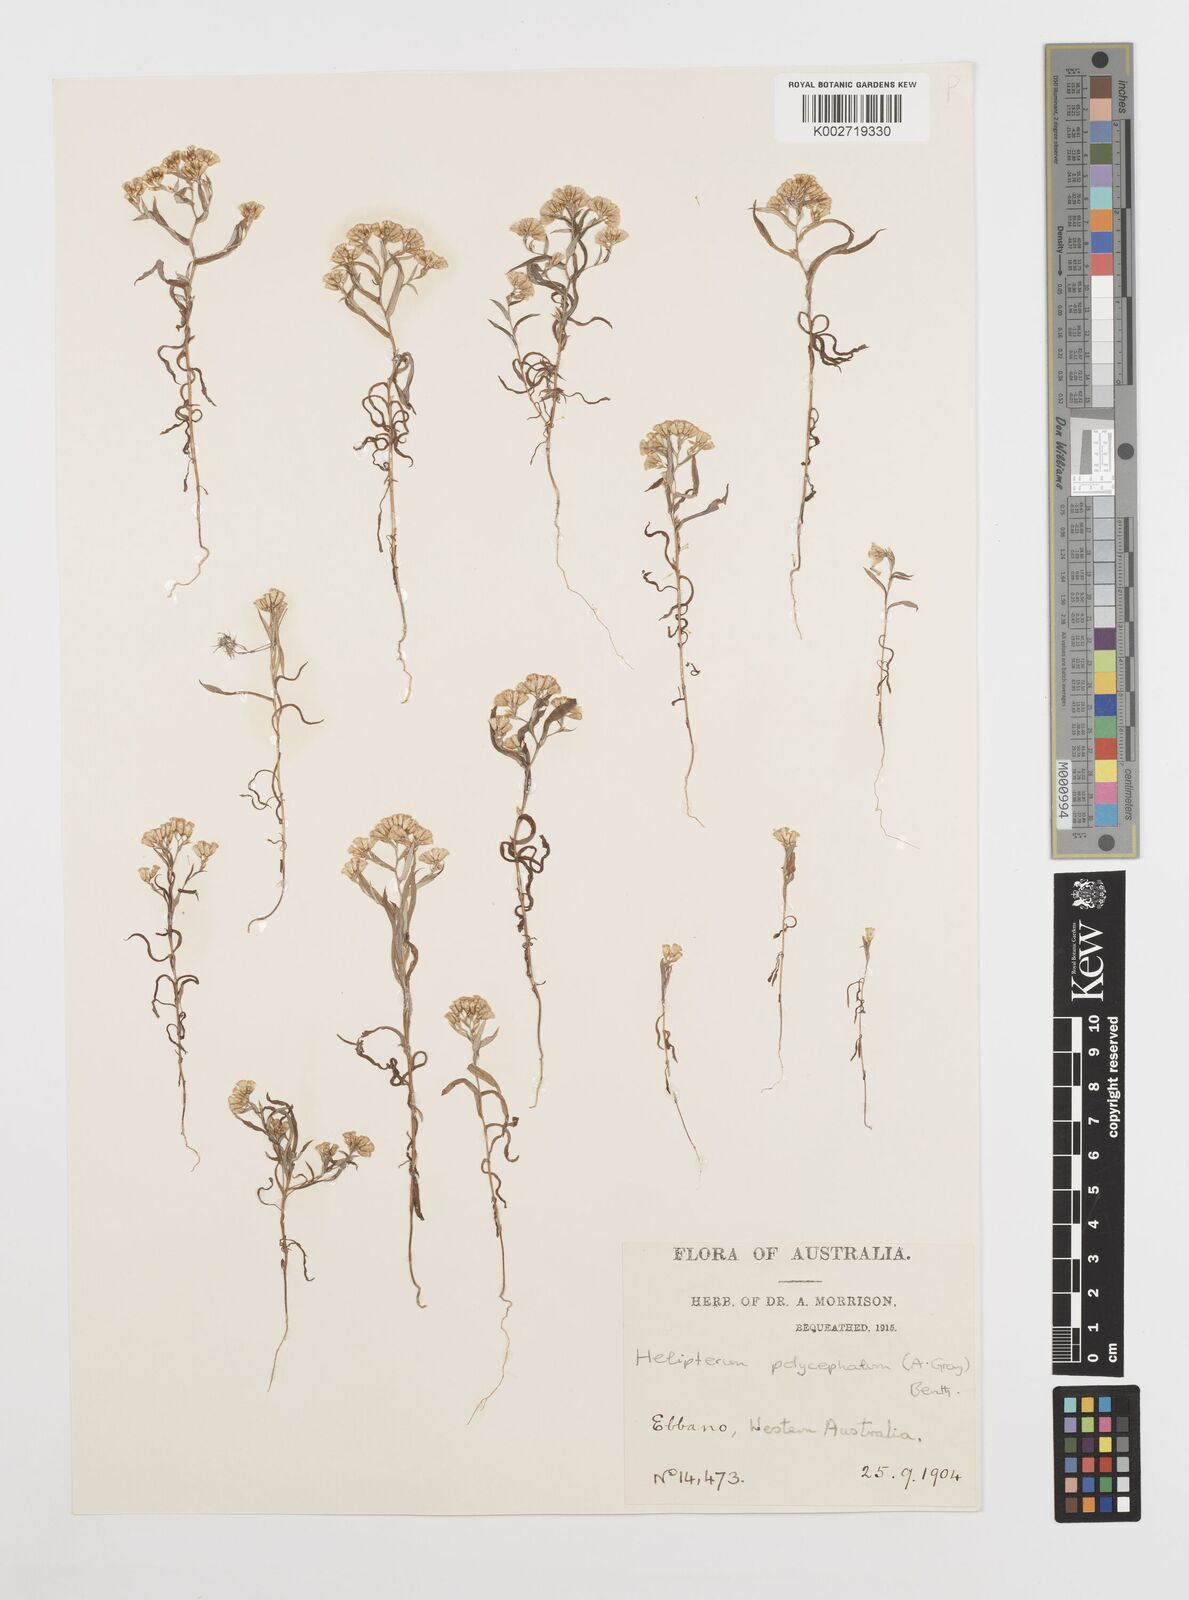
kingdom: Plantae
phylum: Tracheophyta
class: Magnoliopsida
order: Asterales
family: Asteraceae
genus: Rhodanthe
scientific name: Rhodanthe polycephala
